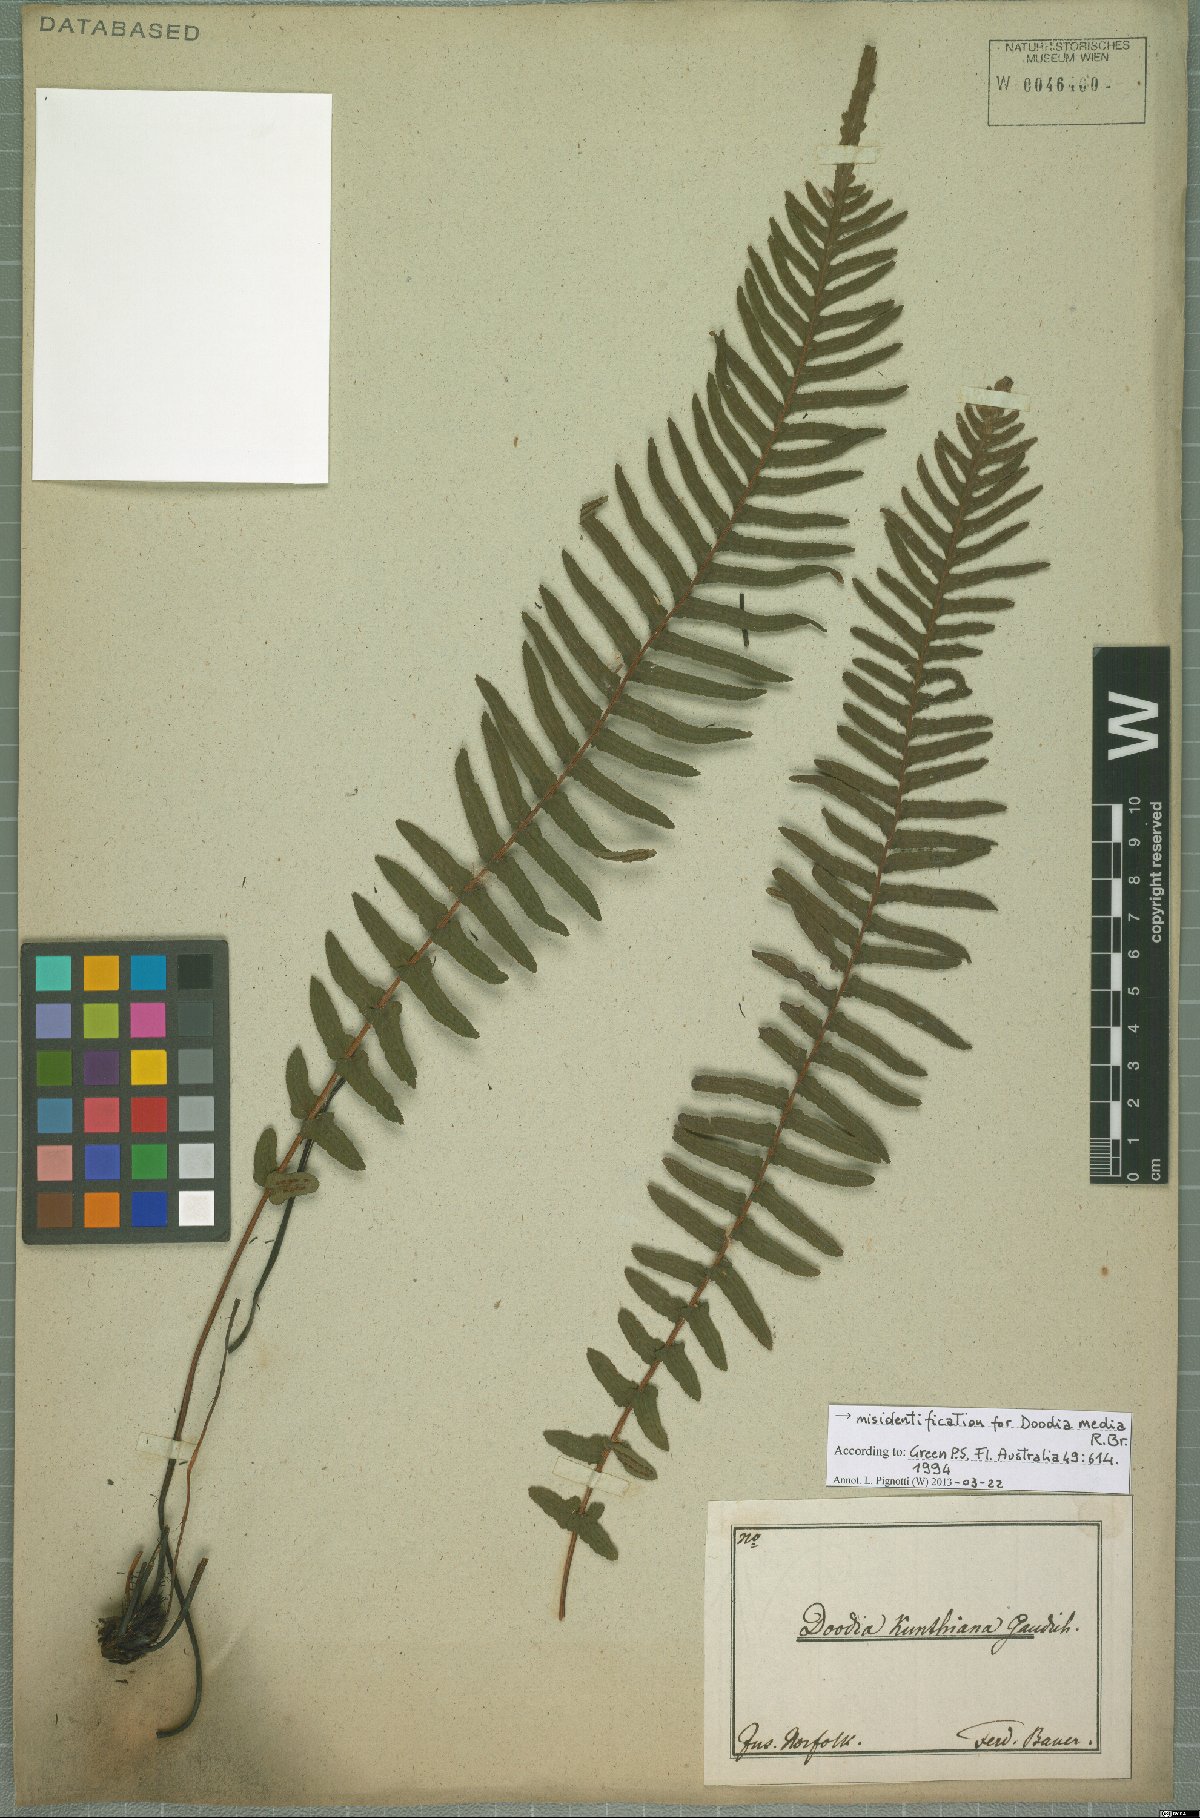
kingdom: Plantae
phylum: Tracheophyta
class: Polypodiopsida
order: Polypodiales
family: Blechnaceae
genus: Doodia
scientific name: Doodia media
